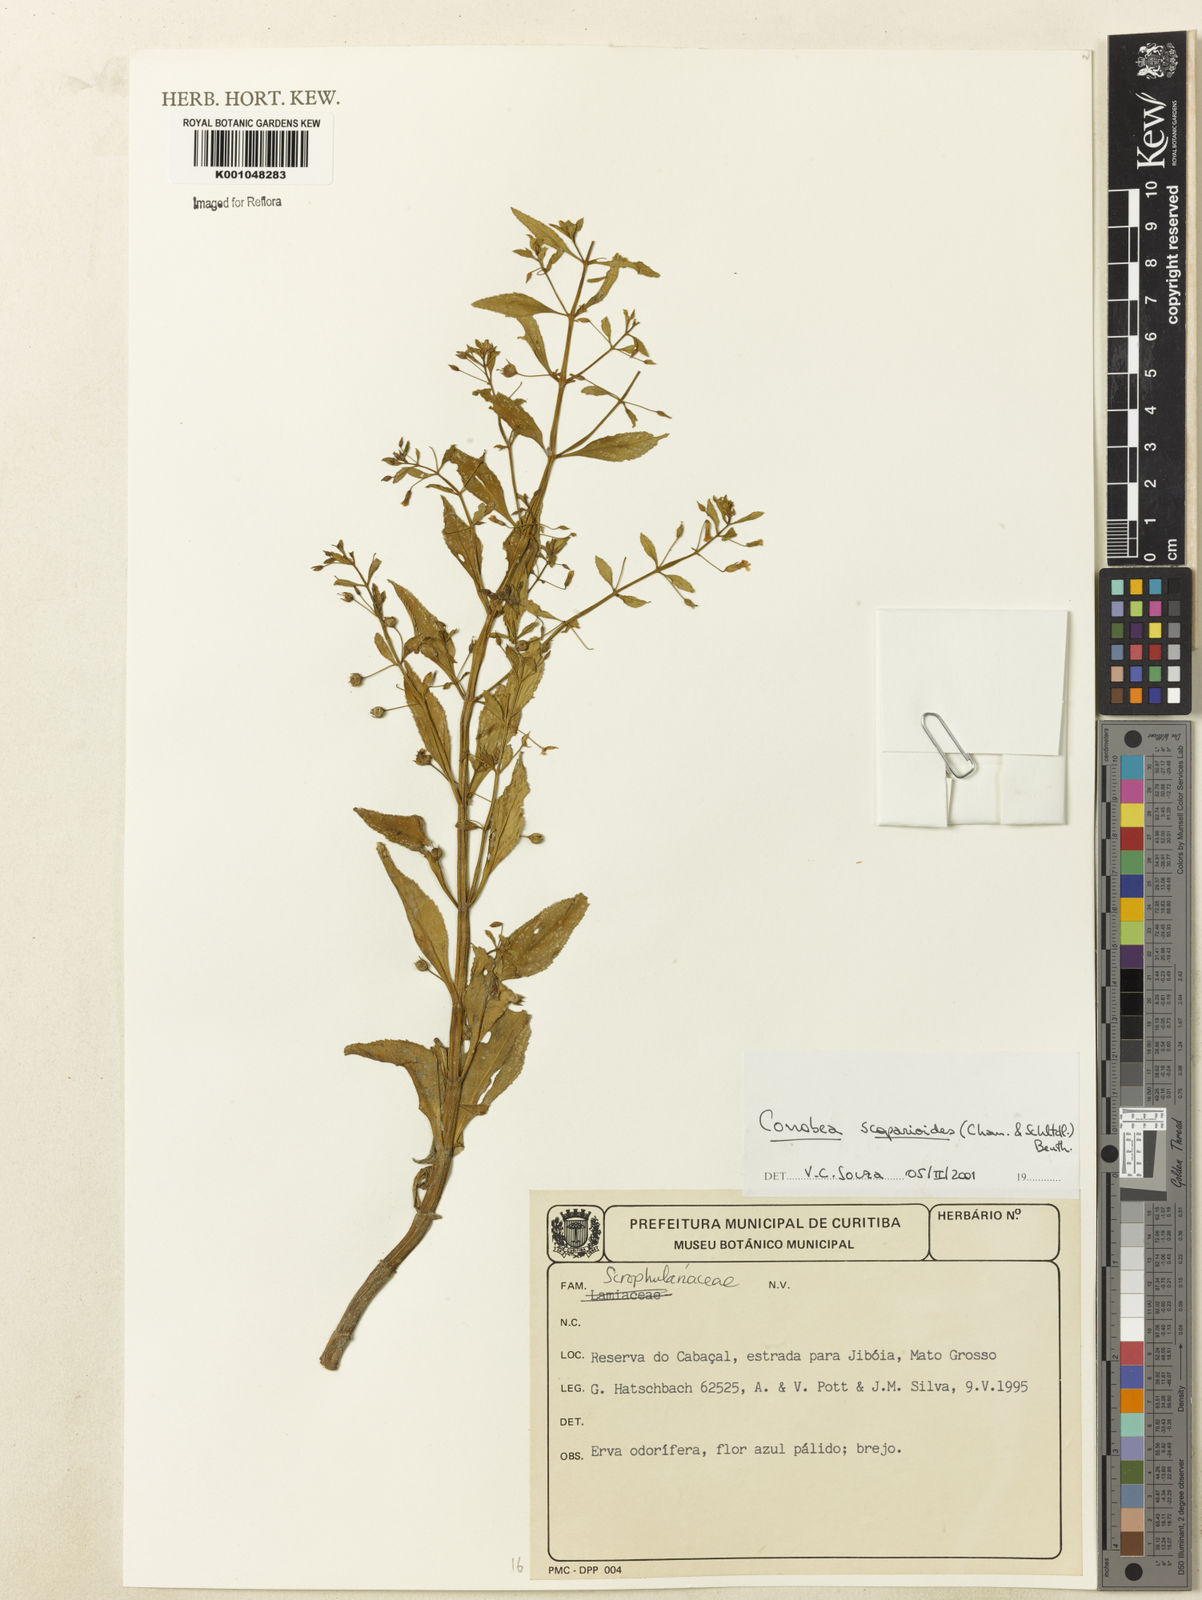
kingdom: Plantae
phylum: Tracheophyta
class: Magnoliopsida
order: Lamiales
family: Plantaginaceae
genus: Conobea
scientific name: Conobea scoparioides
